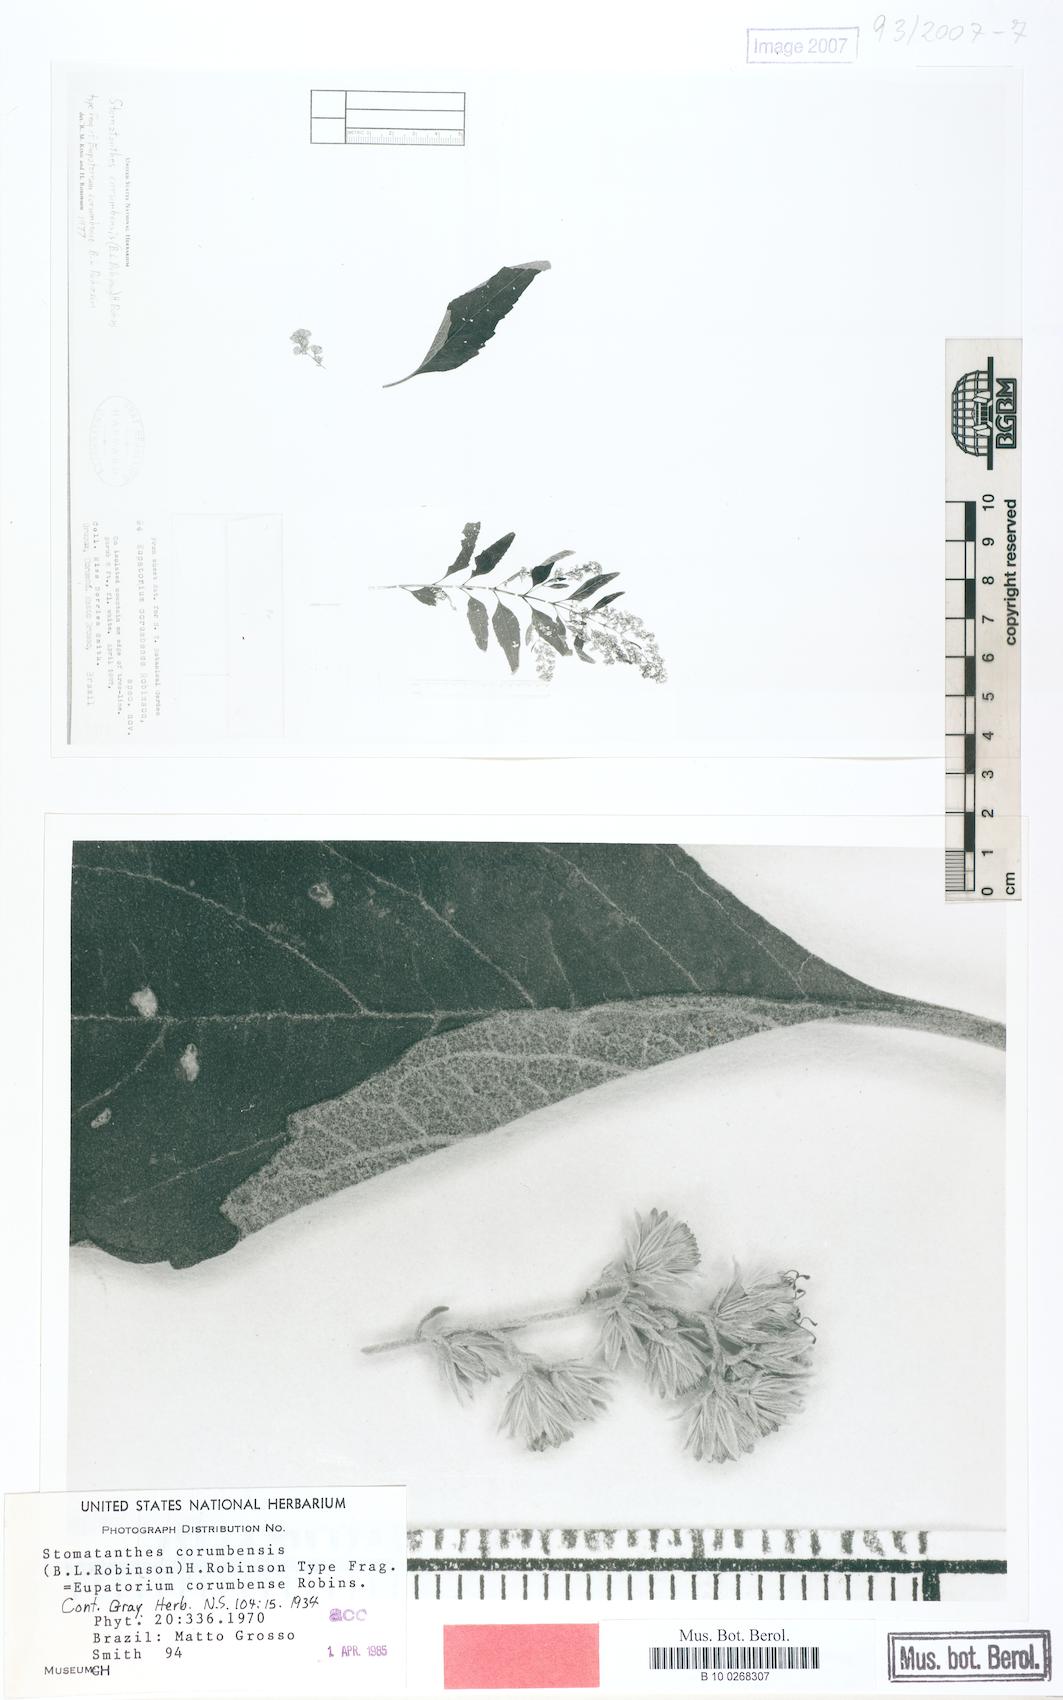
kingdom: Plantae
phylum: Tracheophyta
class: Magnoliopsida
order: Asterales
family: Asteraceae
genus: Stomatanthes
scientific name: Stomatanthes corumbensis
